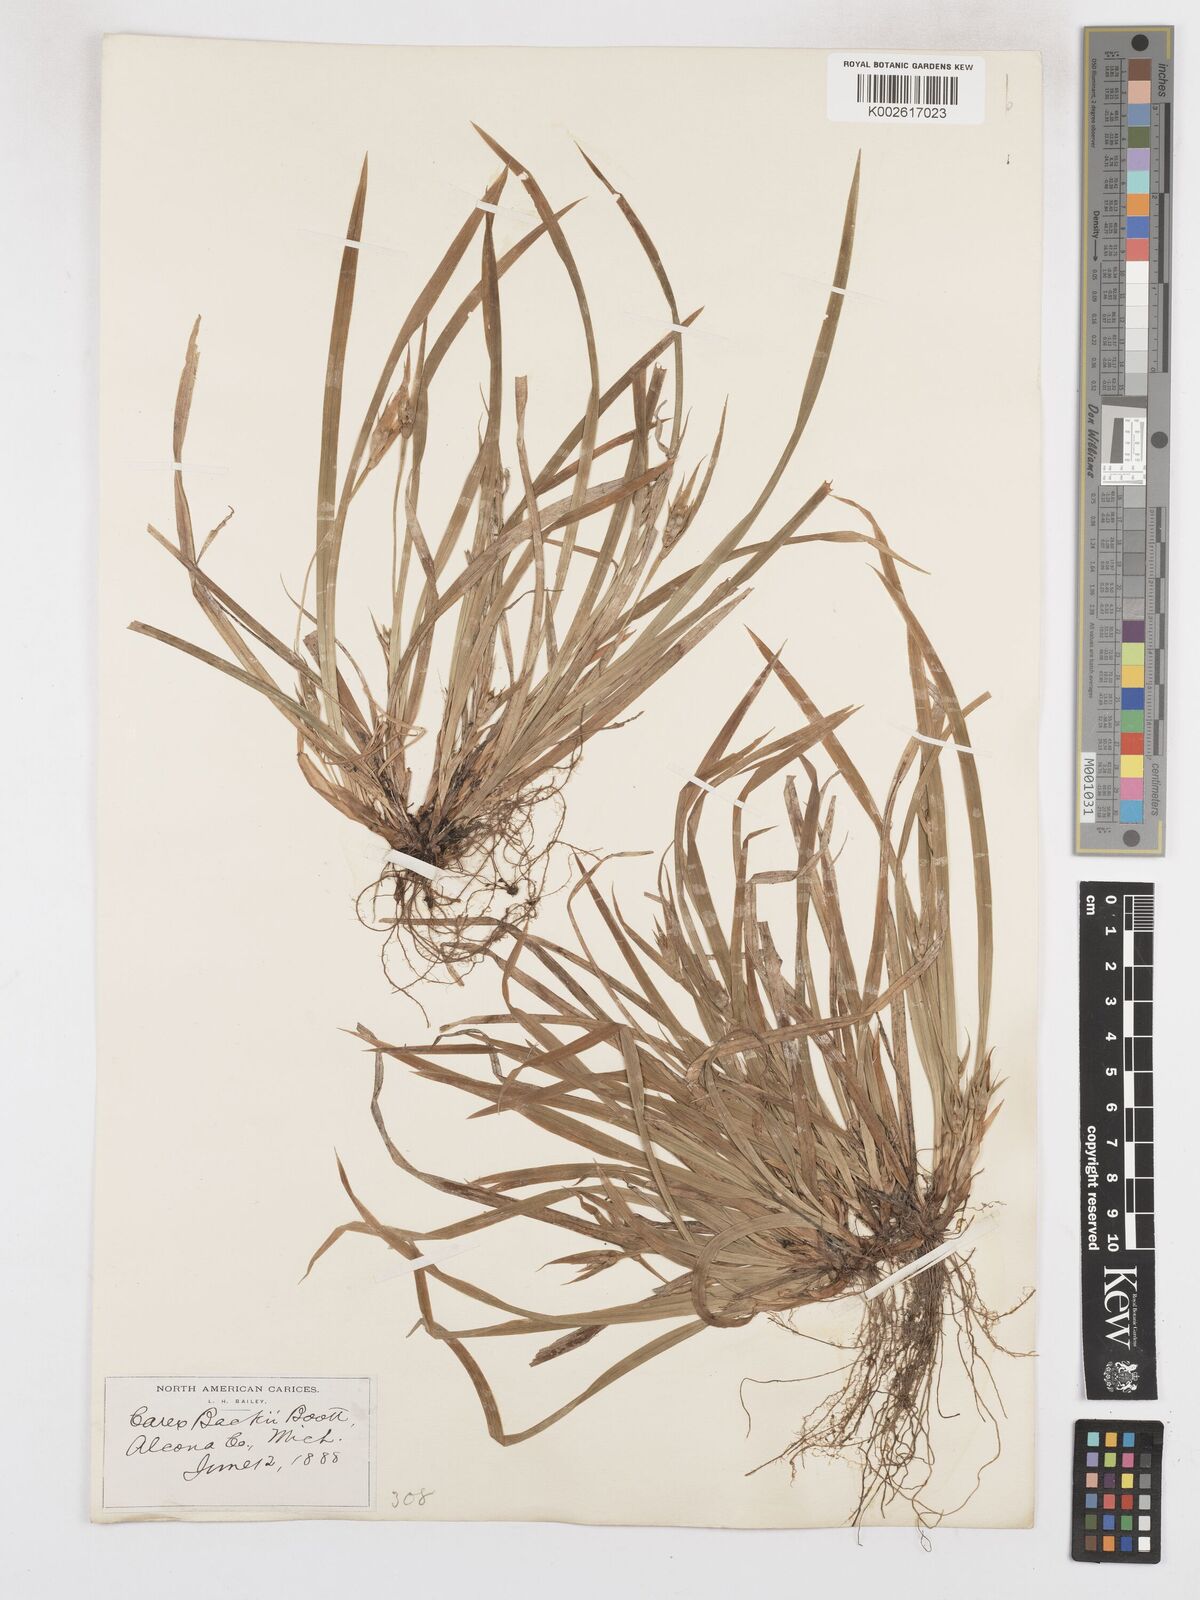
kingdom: Plantae
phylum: Tracheophyta
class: Liliopsida
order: Poales
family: Cyperaceae
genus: Carex
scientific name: Carex backii
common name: Back's sedge
